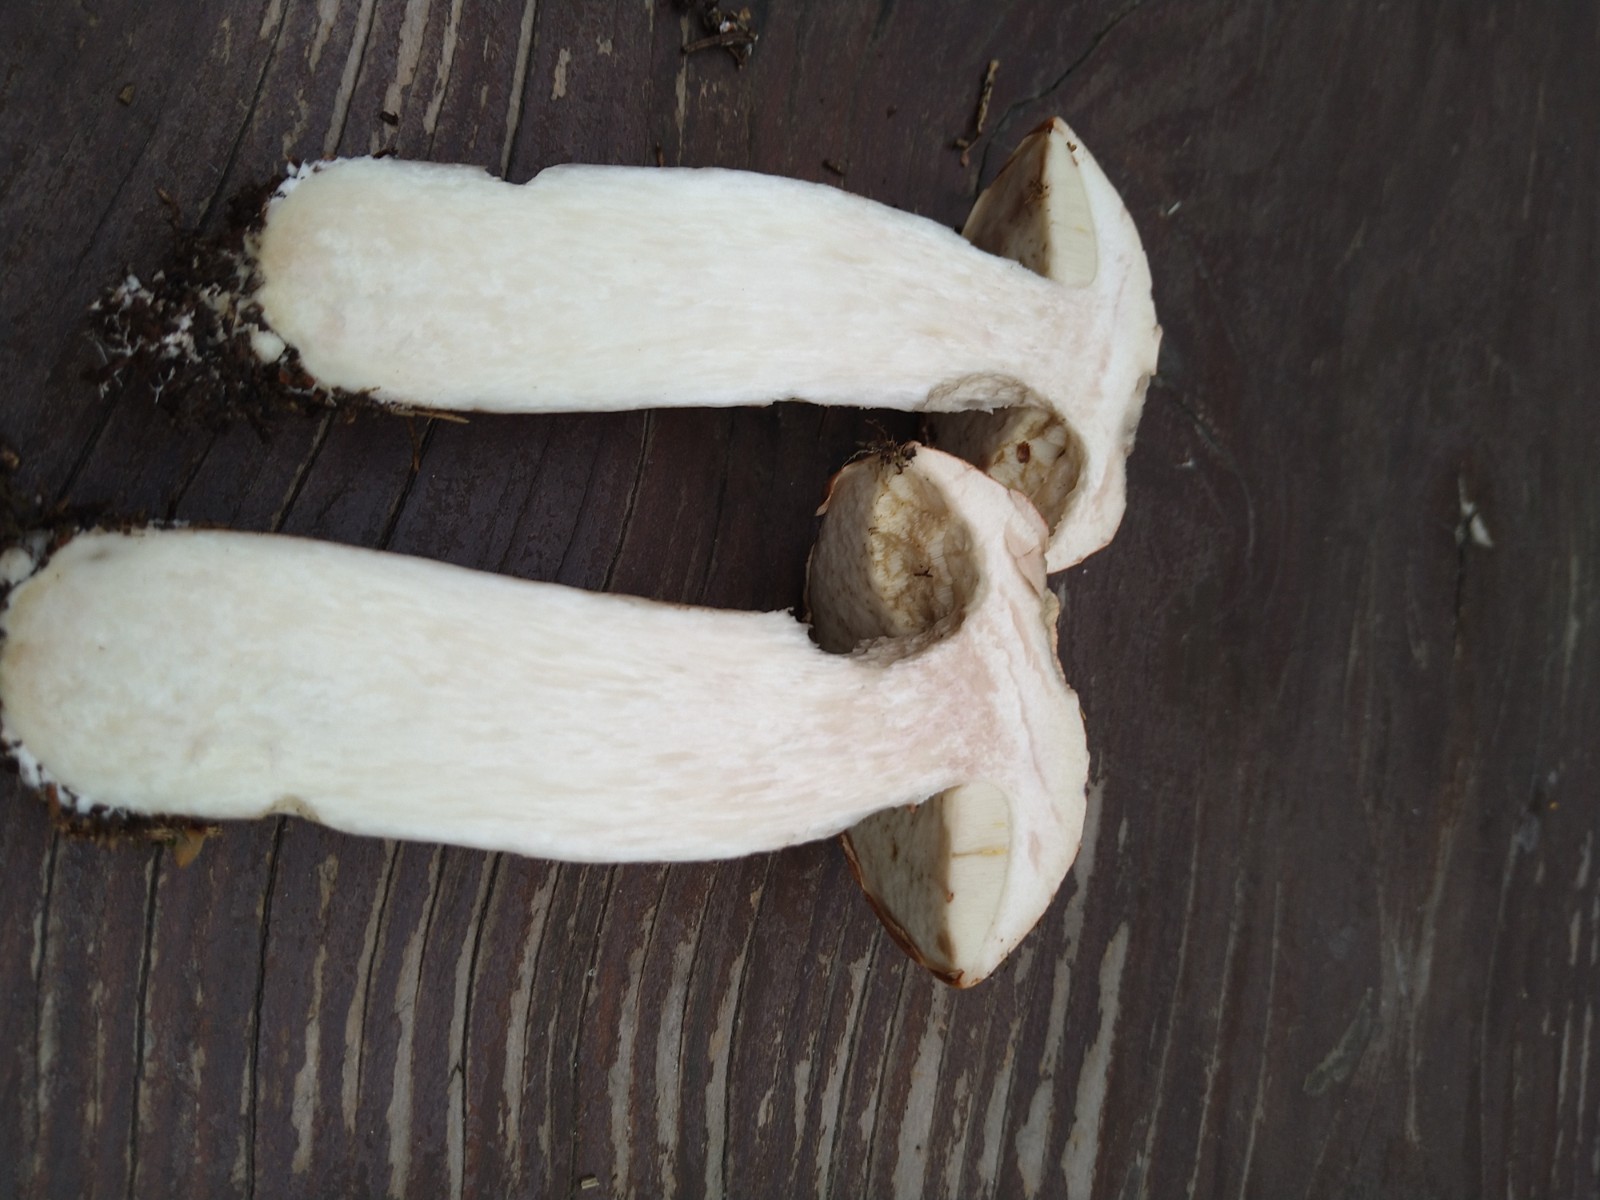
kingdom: Fungi
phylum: Basidiomycota
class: Agaricomycetes
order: Boletales
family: Boletaceae
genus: Leccinum
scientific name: Leccinum vulpinum
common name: fyrre-skælrørhat
